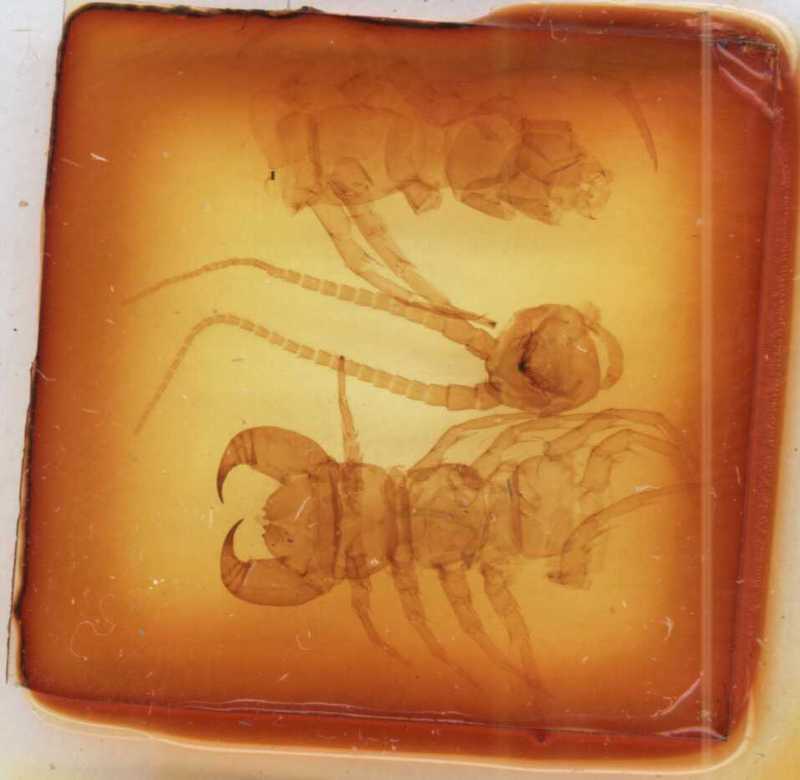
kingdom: Animalia
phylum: Arthropoda
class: Chilopoda
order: Lithobiomorpha
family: Lithobiidae
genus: Lithobius
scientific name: Lithobius pilicornis
